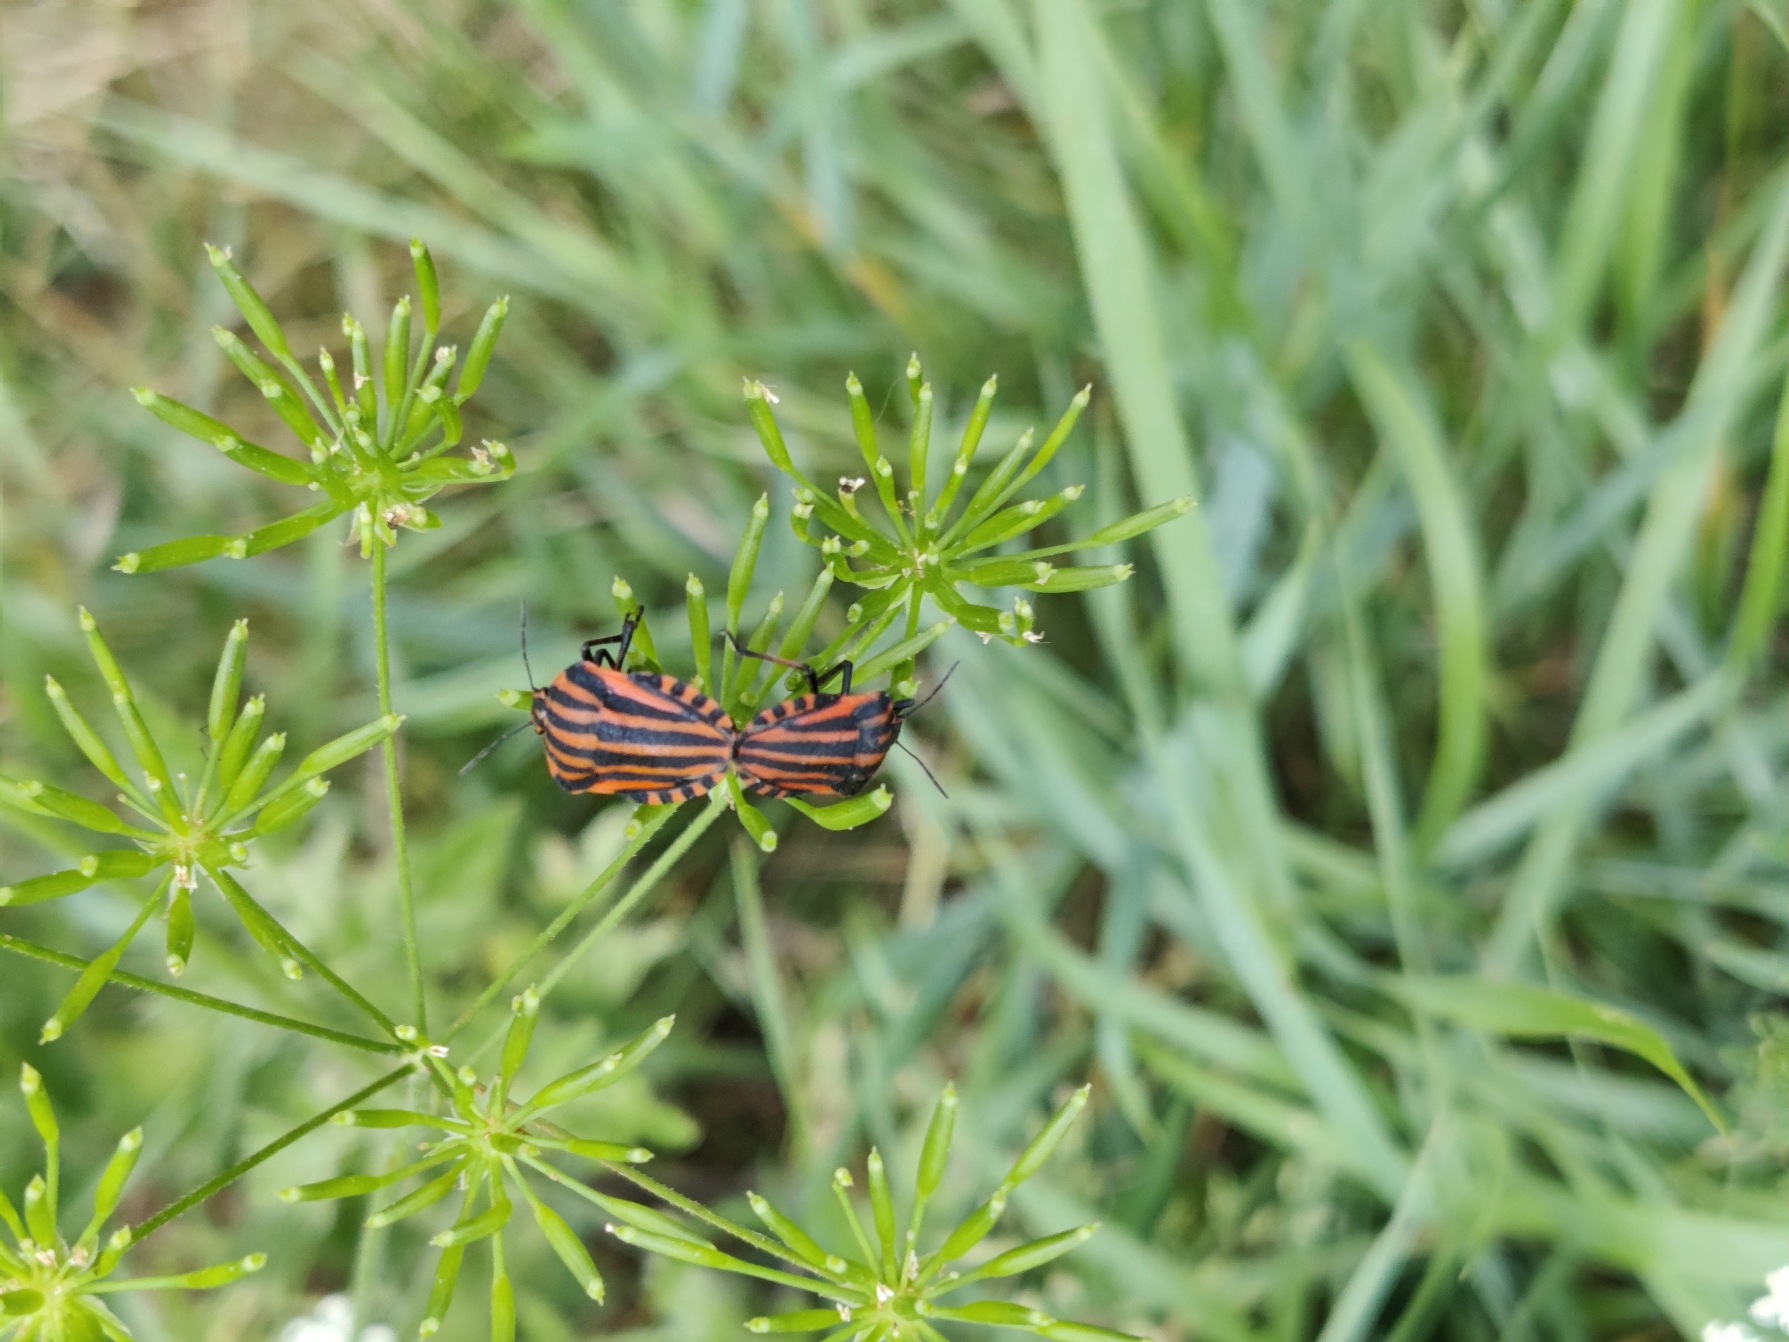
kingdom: Animalia
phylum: Arthropoda
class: Insecta
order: Hemiptera
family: Pentatomidae
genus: Graphosoma
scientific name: Graphosoma italicum
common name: Stribetæge
